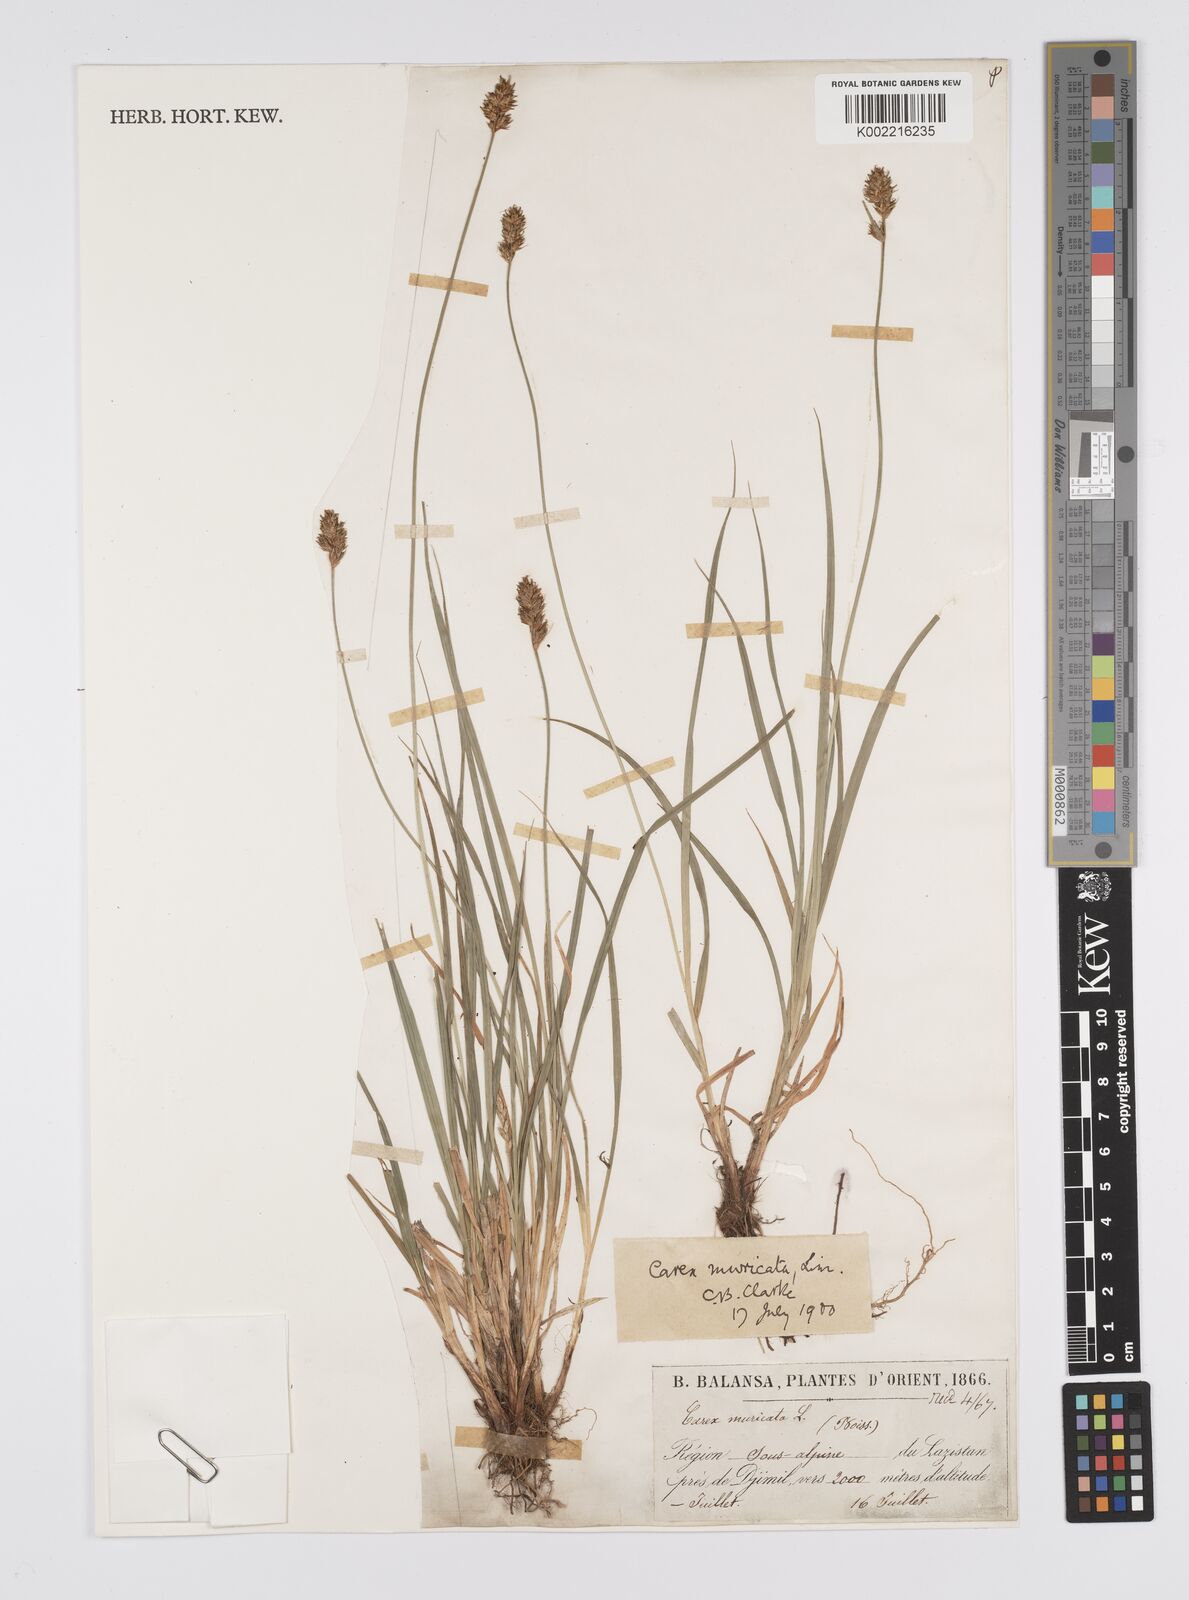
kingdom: Plantae
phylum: Tracheophyta
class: Liliopsida
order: Poales
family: Cyperaceae
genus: Carex
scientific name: Carex spicata
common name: Spiked sedge
